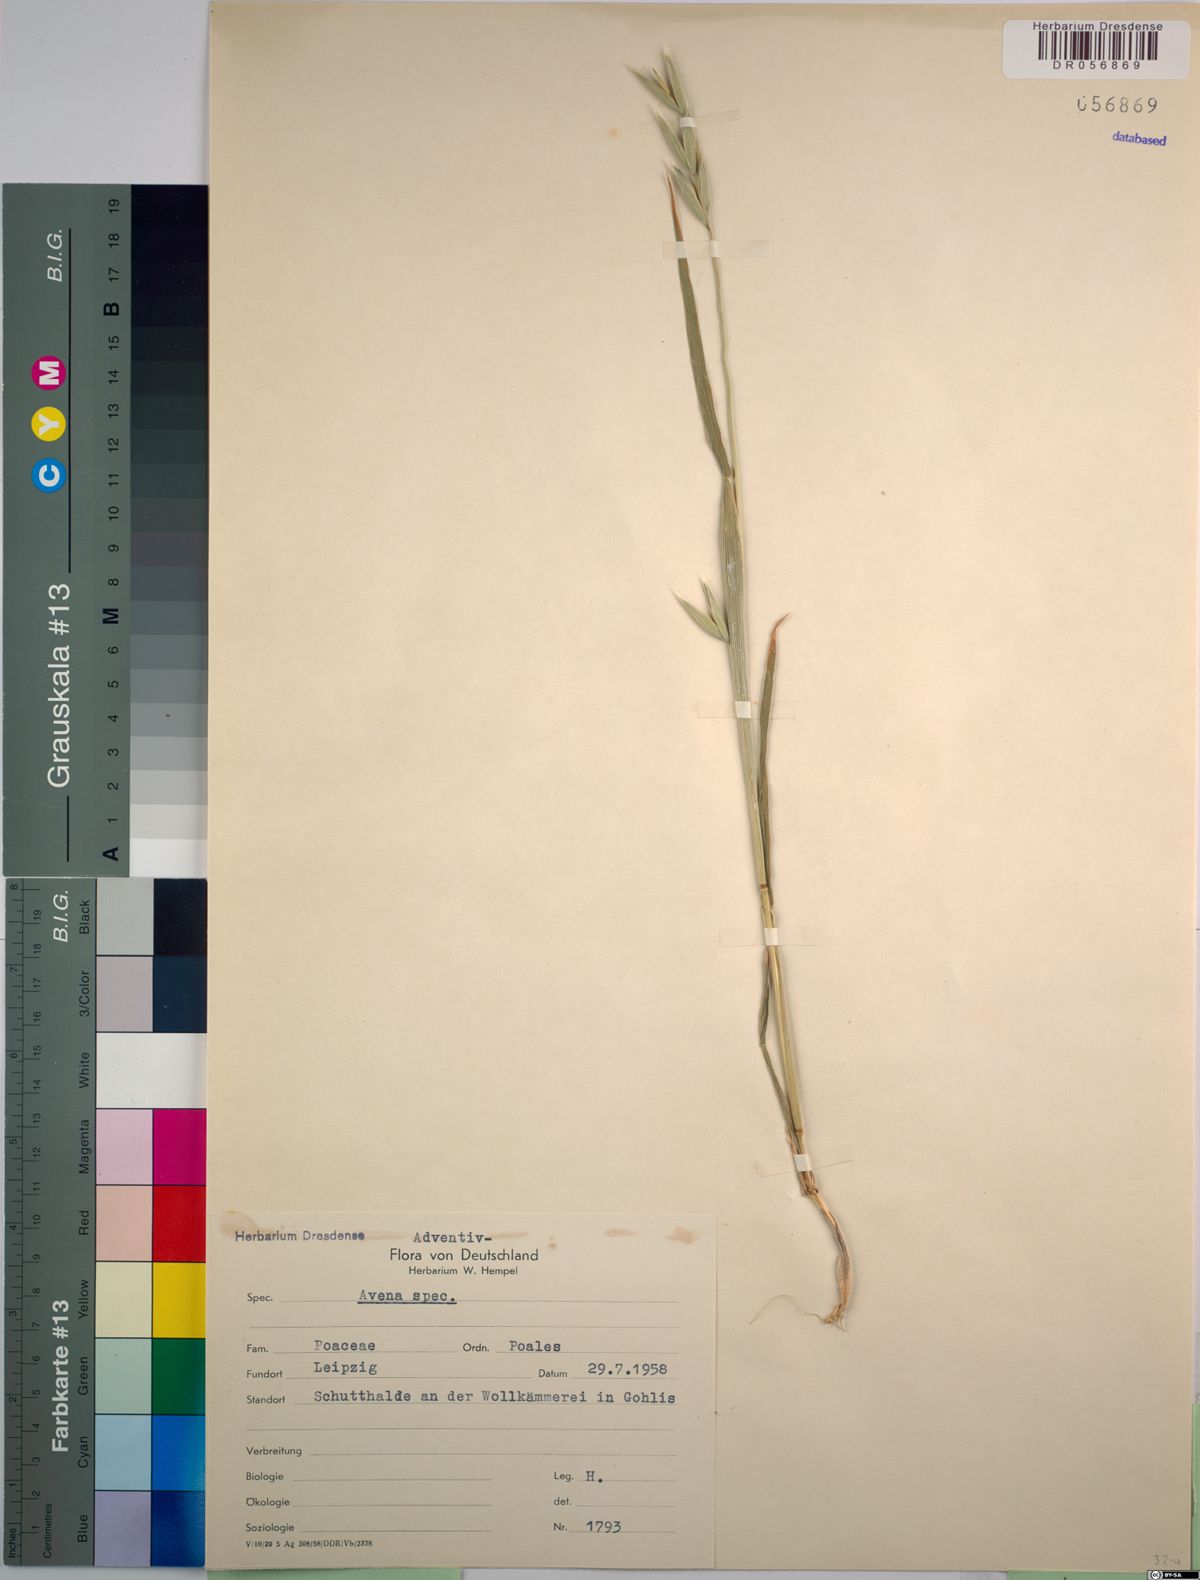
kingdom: Plantae
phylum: Tracheophyta
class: Liliopsida
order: Poales
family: Poaceae
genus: Avena
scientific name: Avena
